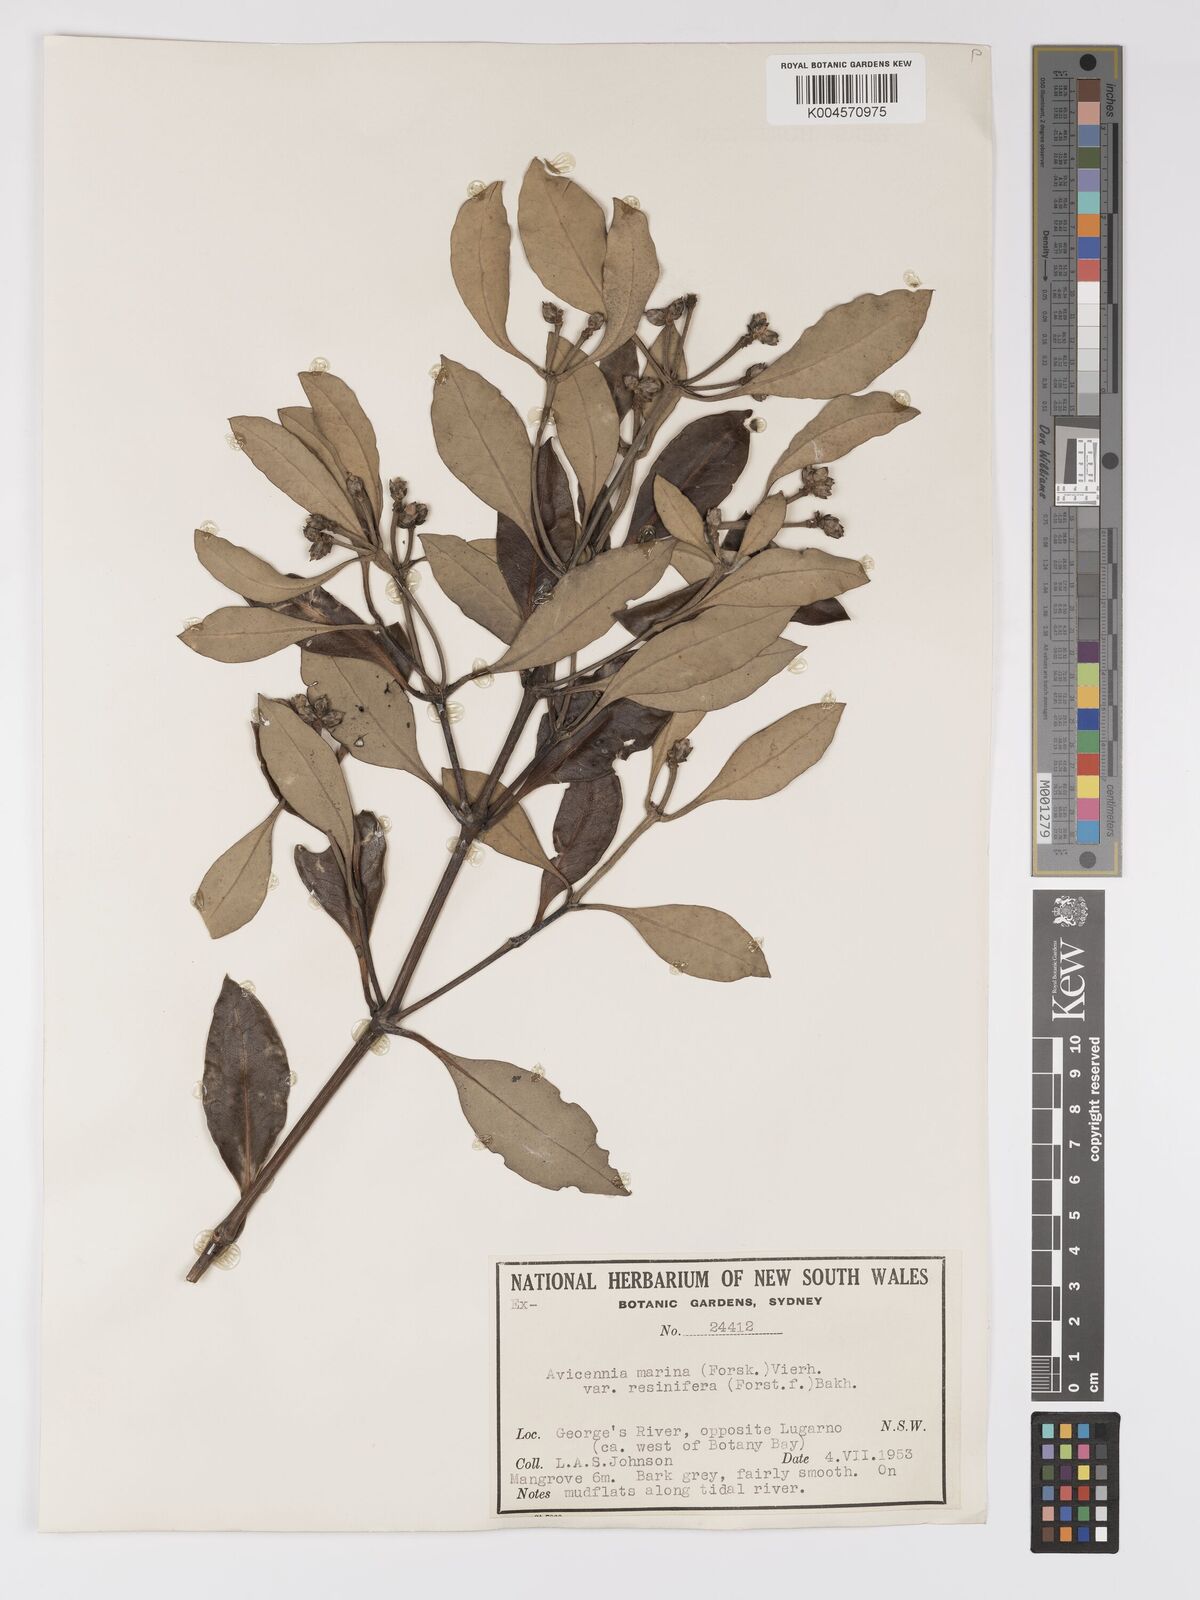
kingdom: Plantae
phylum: Tracheophyta
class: Magnoliopsida
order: Lamiales
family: Acanthaceae
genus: Avicennia
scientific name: Avicennia marina
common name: Gray mangrove
